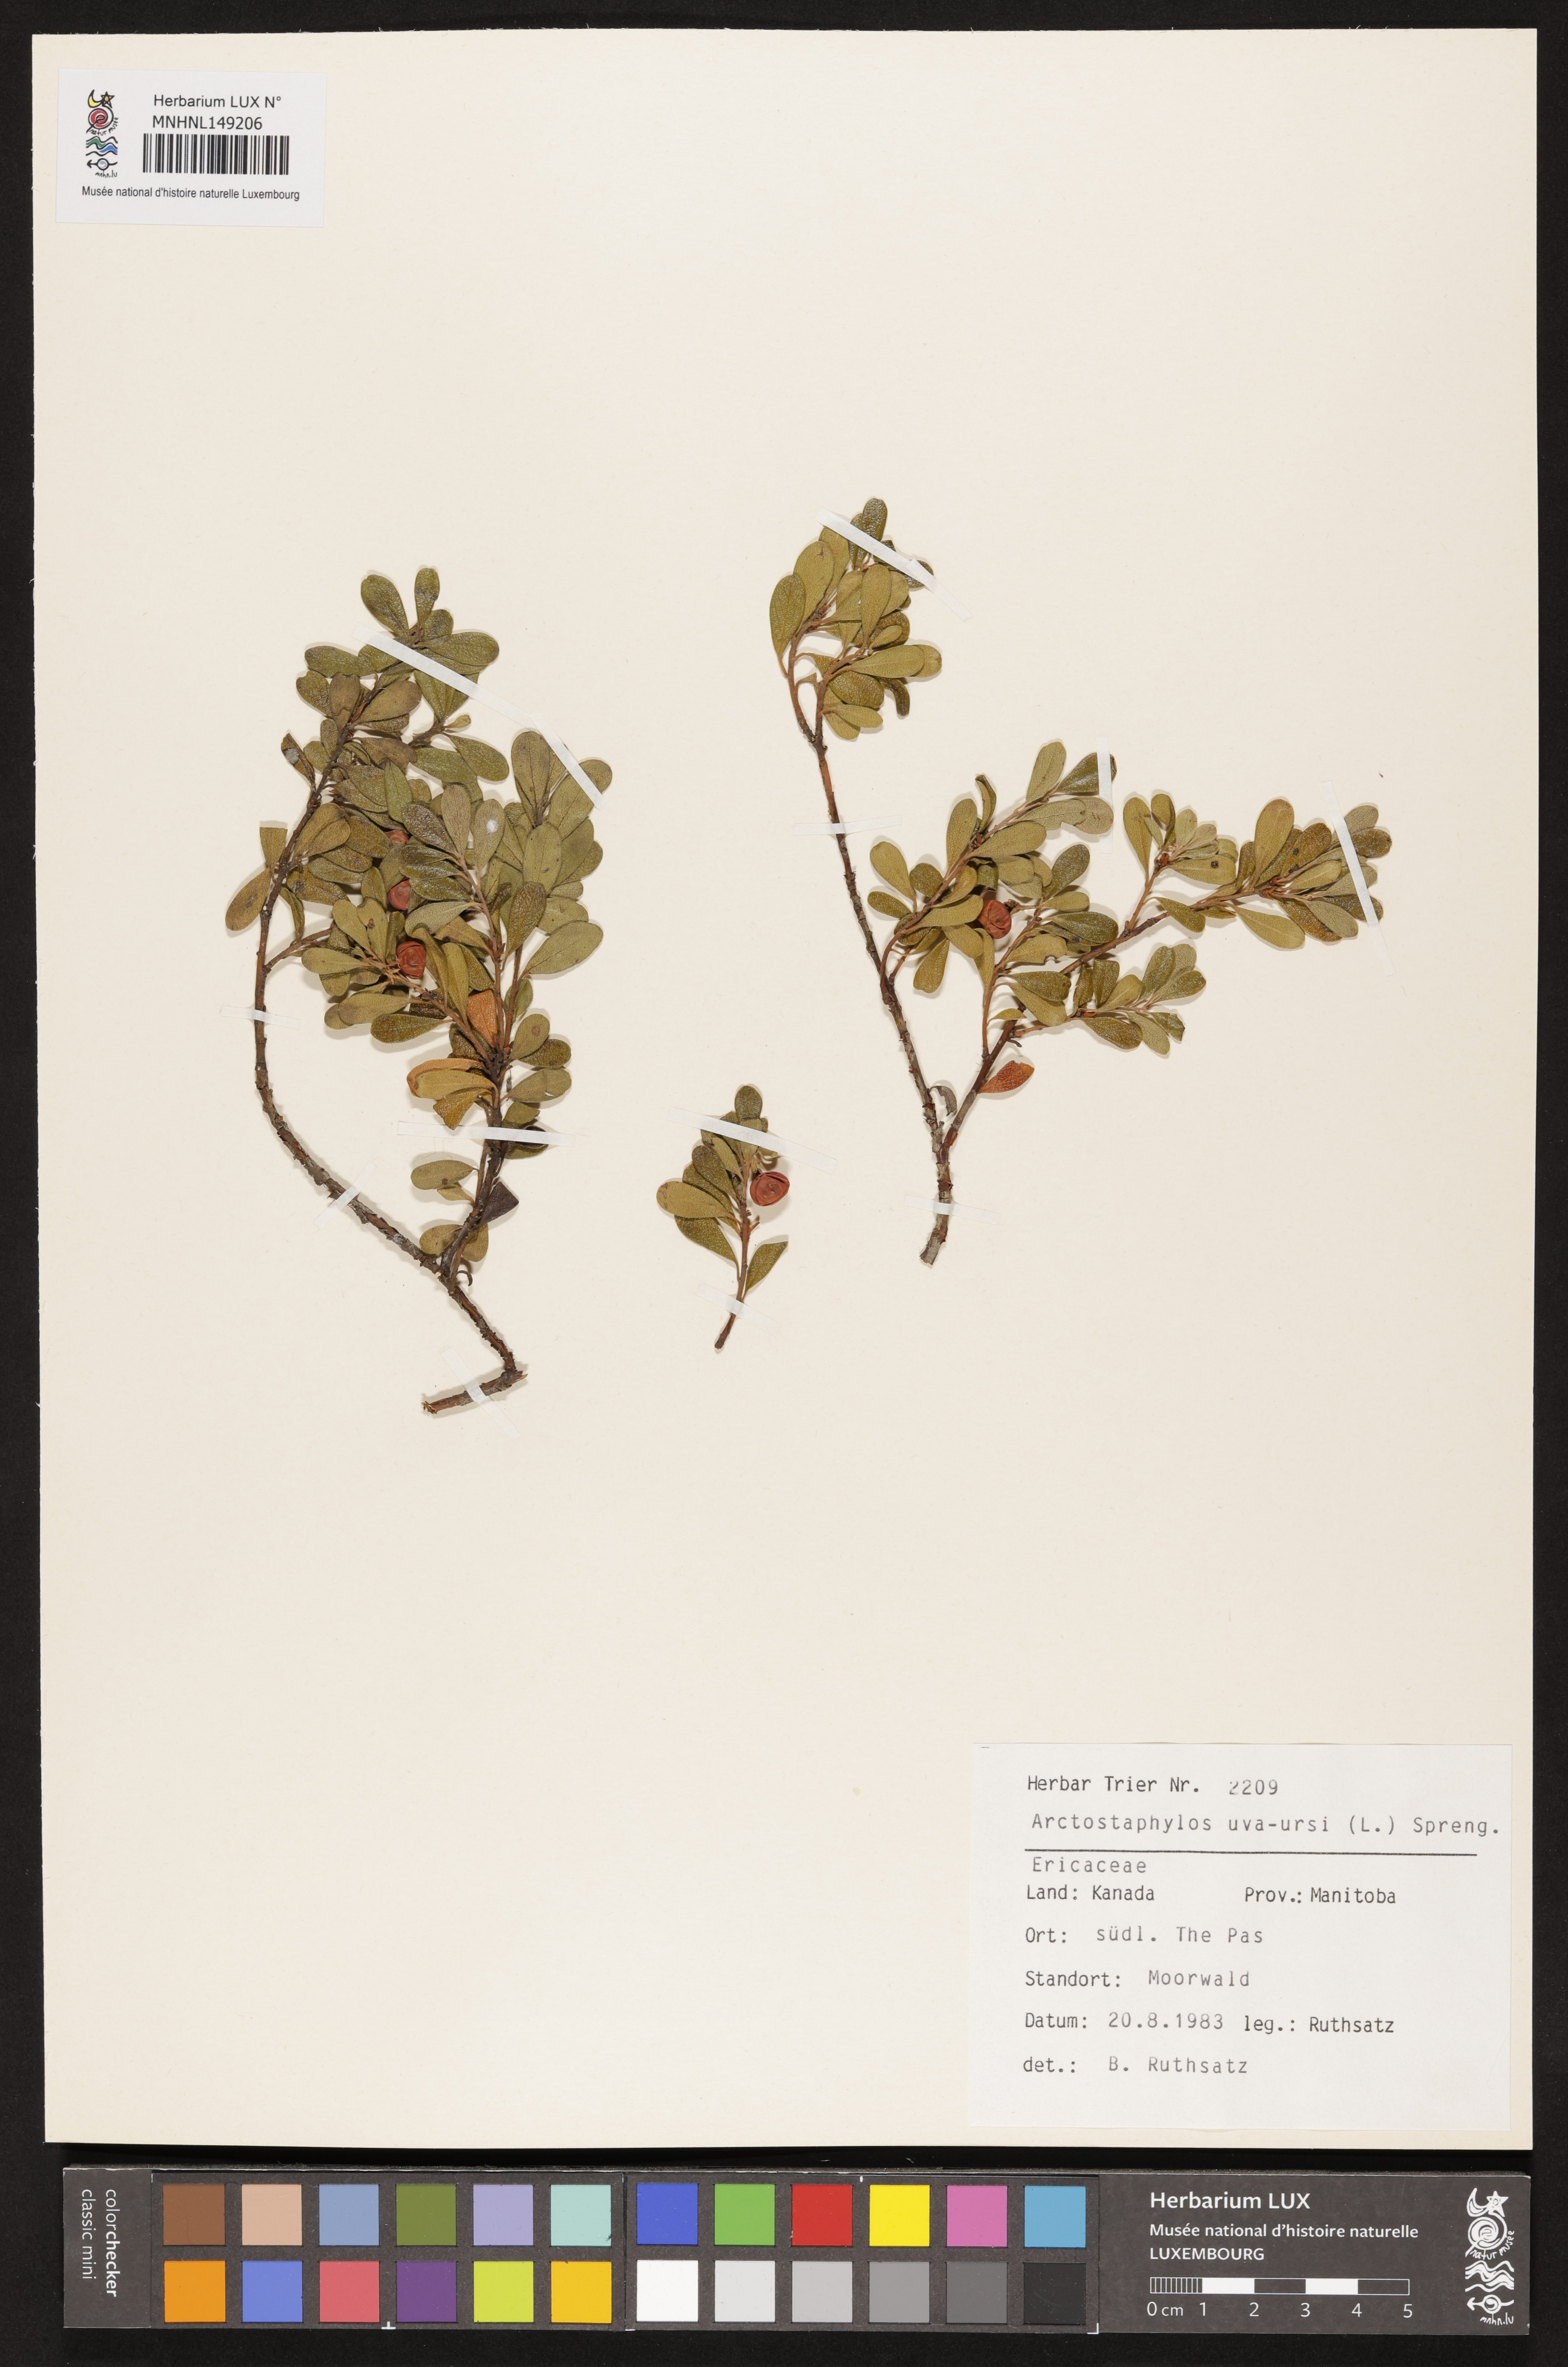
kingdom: Plantae
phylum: Tracheophyta
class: Magnoliopsida
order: Ericales
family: Ericaceae
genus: Arctostaphylos
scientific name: Arctostaphylos uva-ursi
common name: Bearberry
